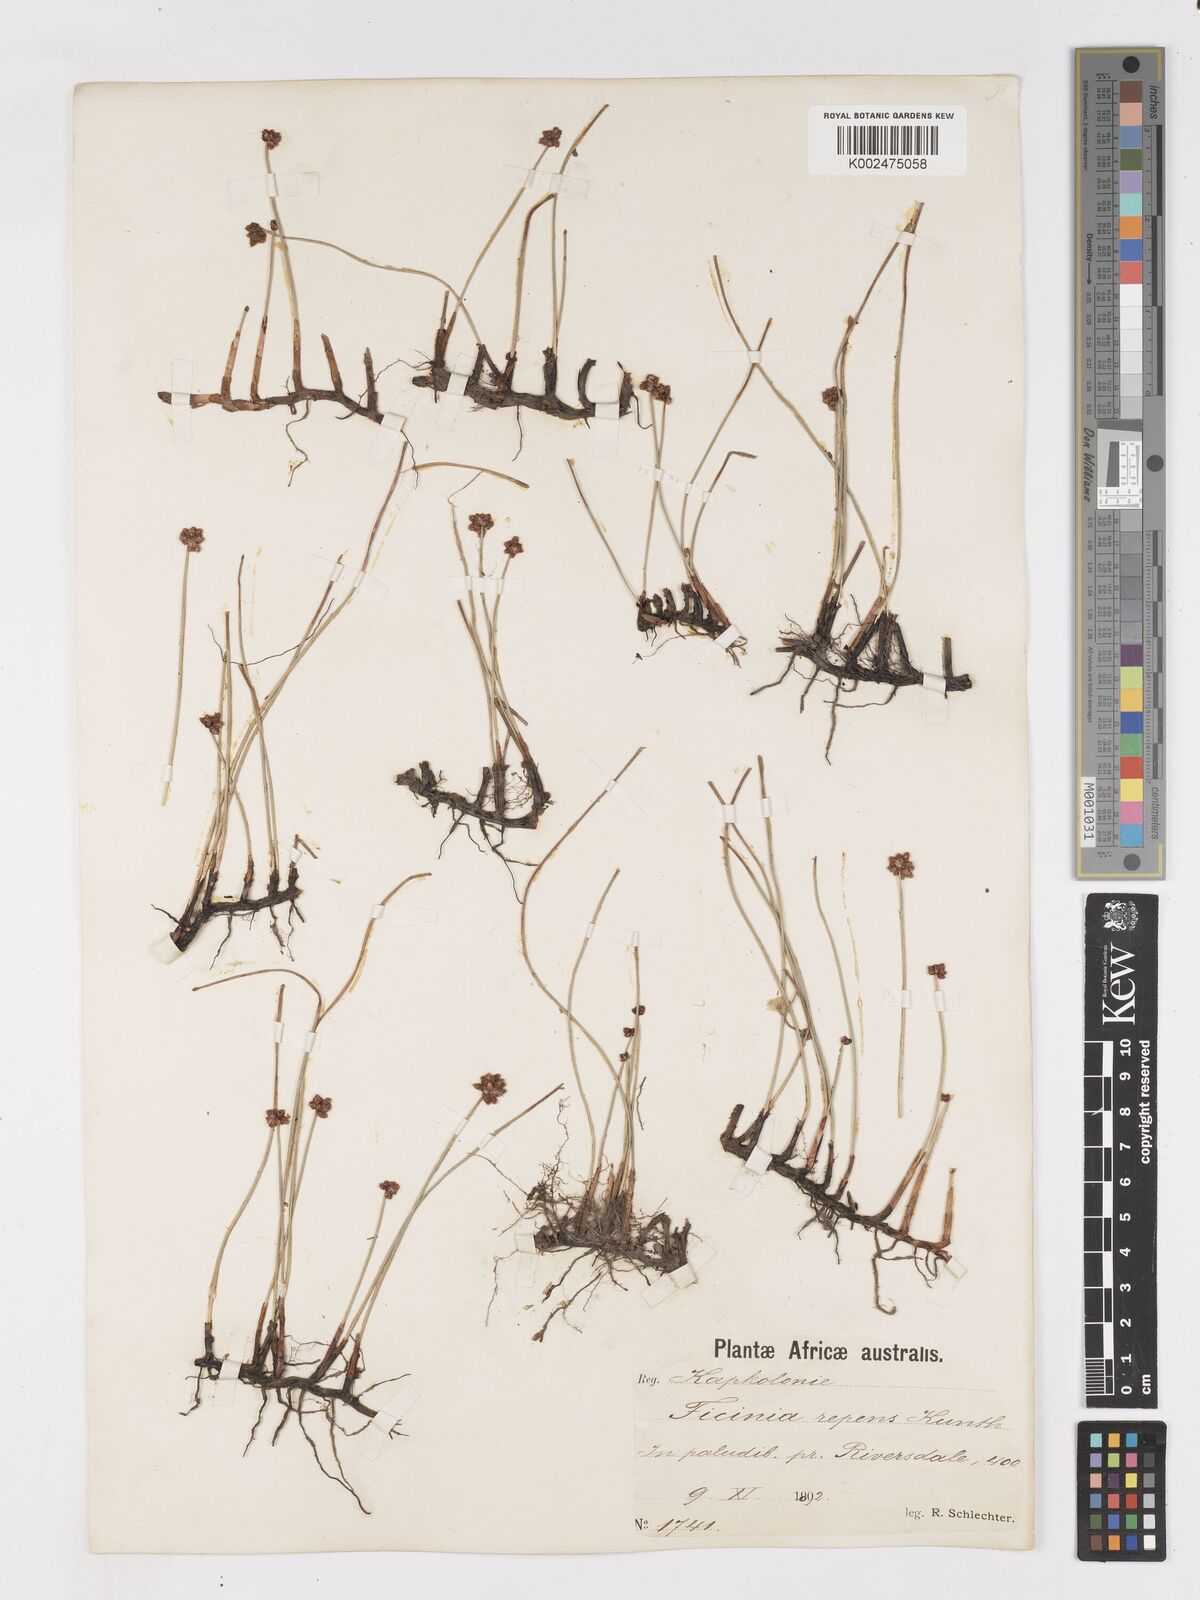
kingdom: Plantae
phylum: Tracheophyta
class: Liliopsida
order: Poales
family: Cyperaceae
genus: Ficinia
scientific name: Ficinia repens
